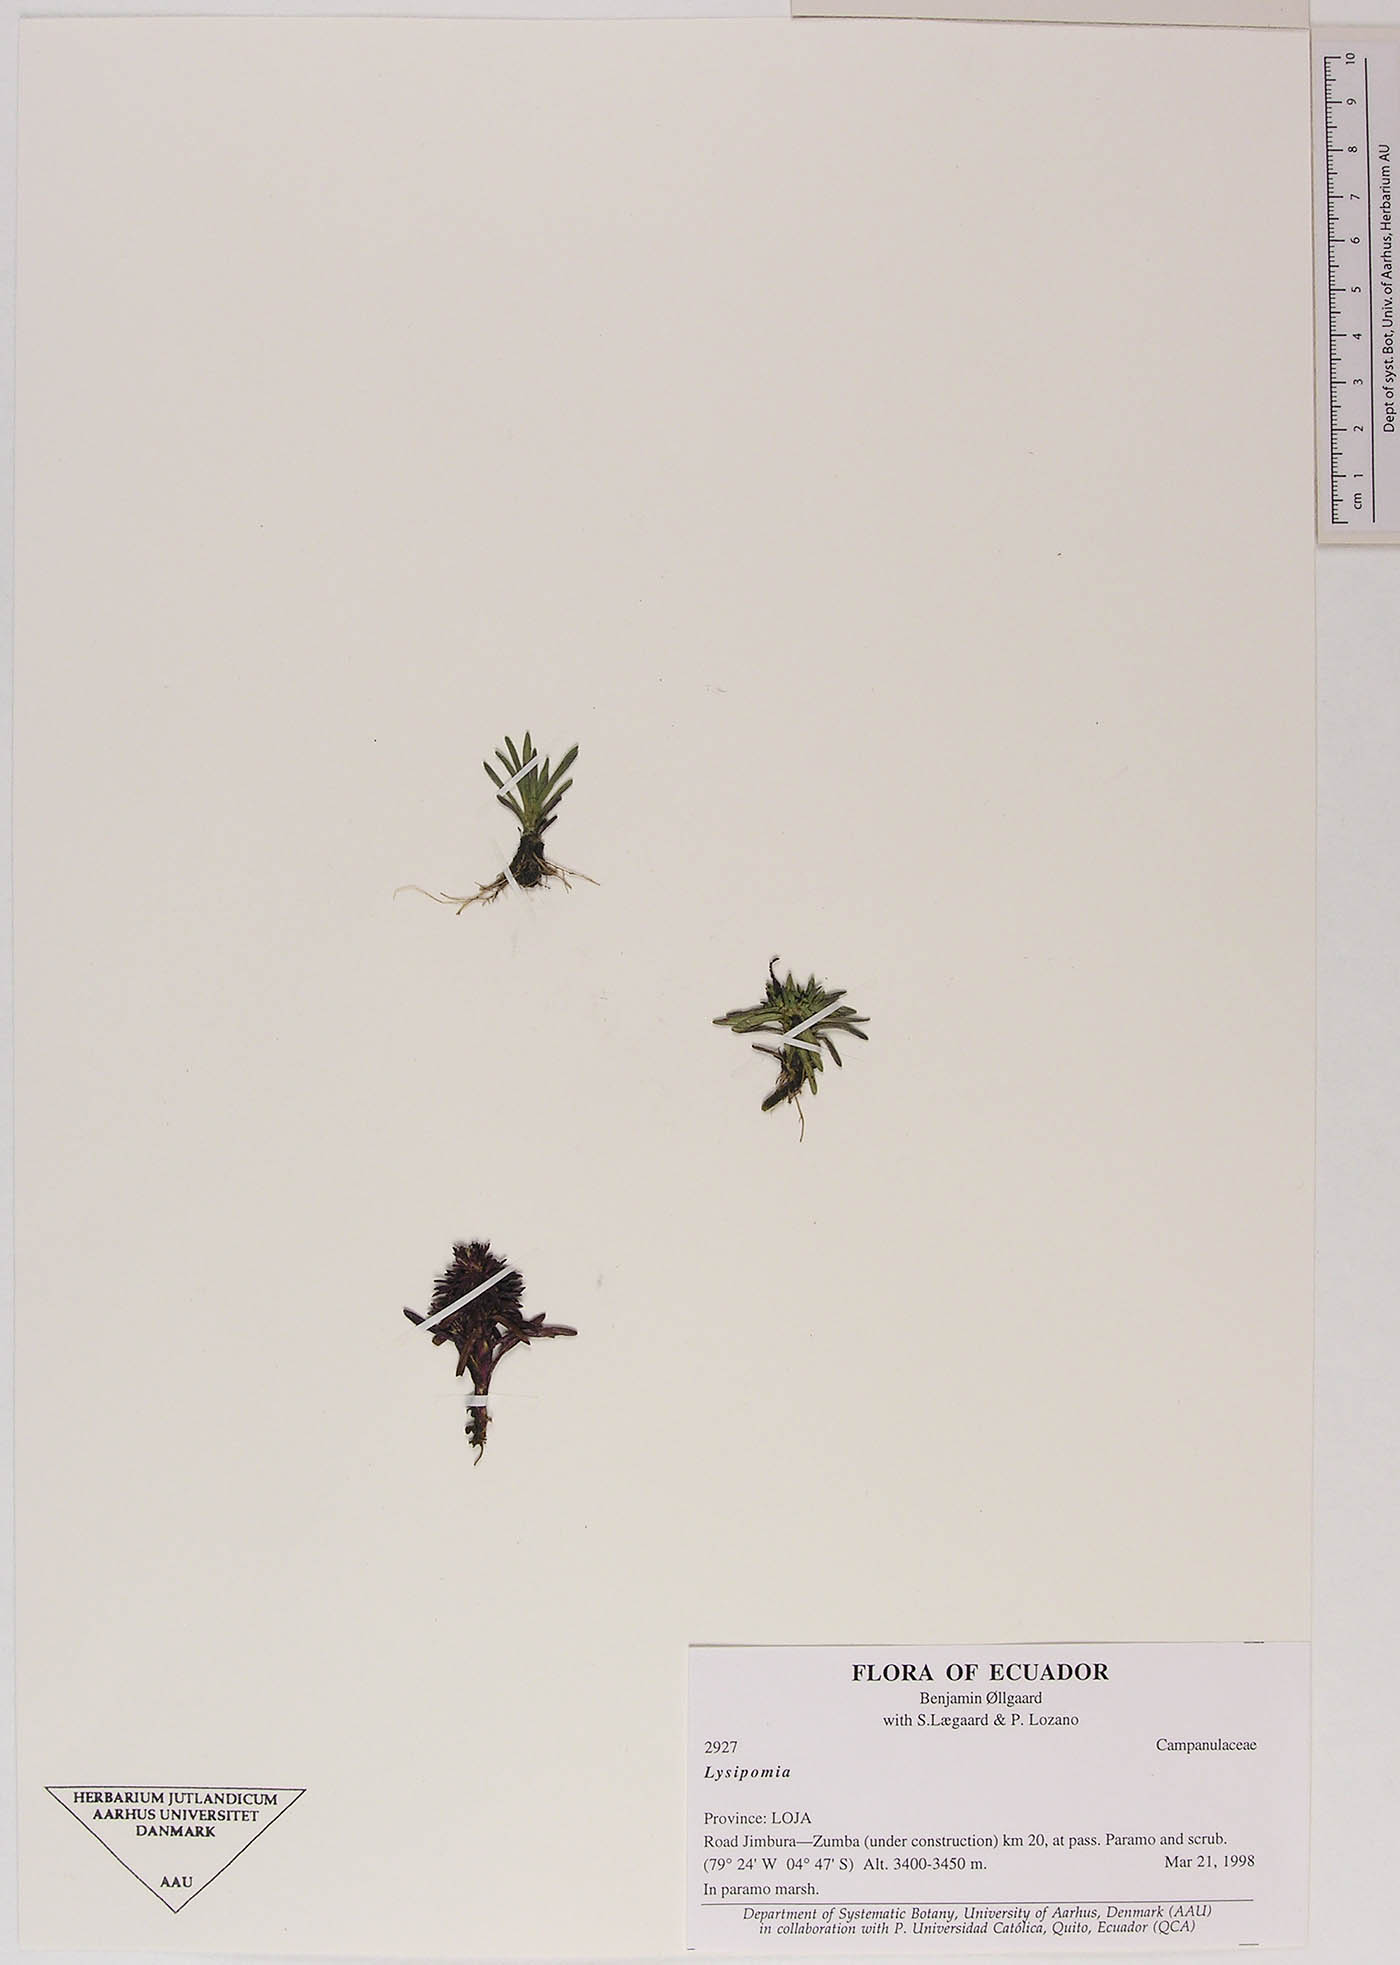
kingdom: Plantae
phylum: Tracheophyta
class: Magnoliopsida
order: Asterales
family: Campanulaceae
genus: Lysipomia
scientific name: Lysipomia
